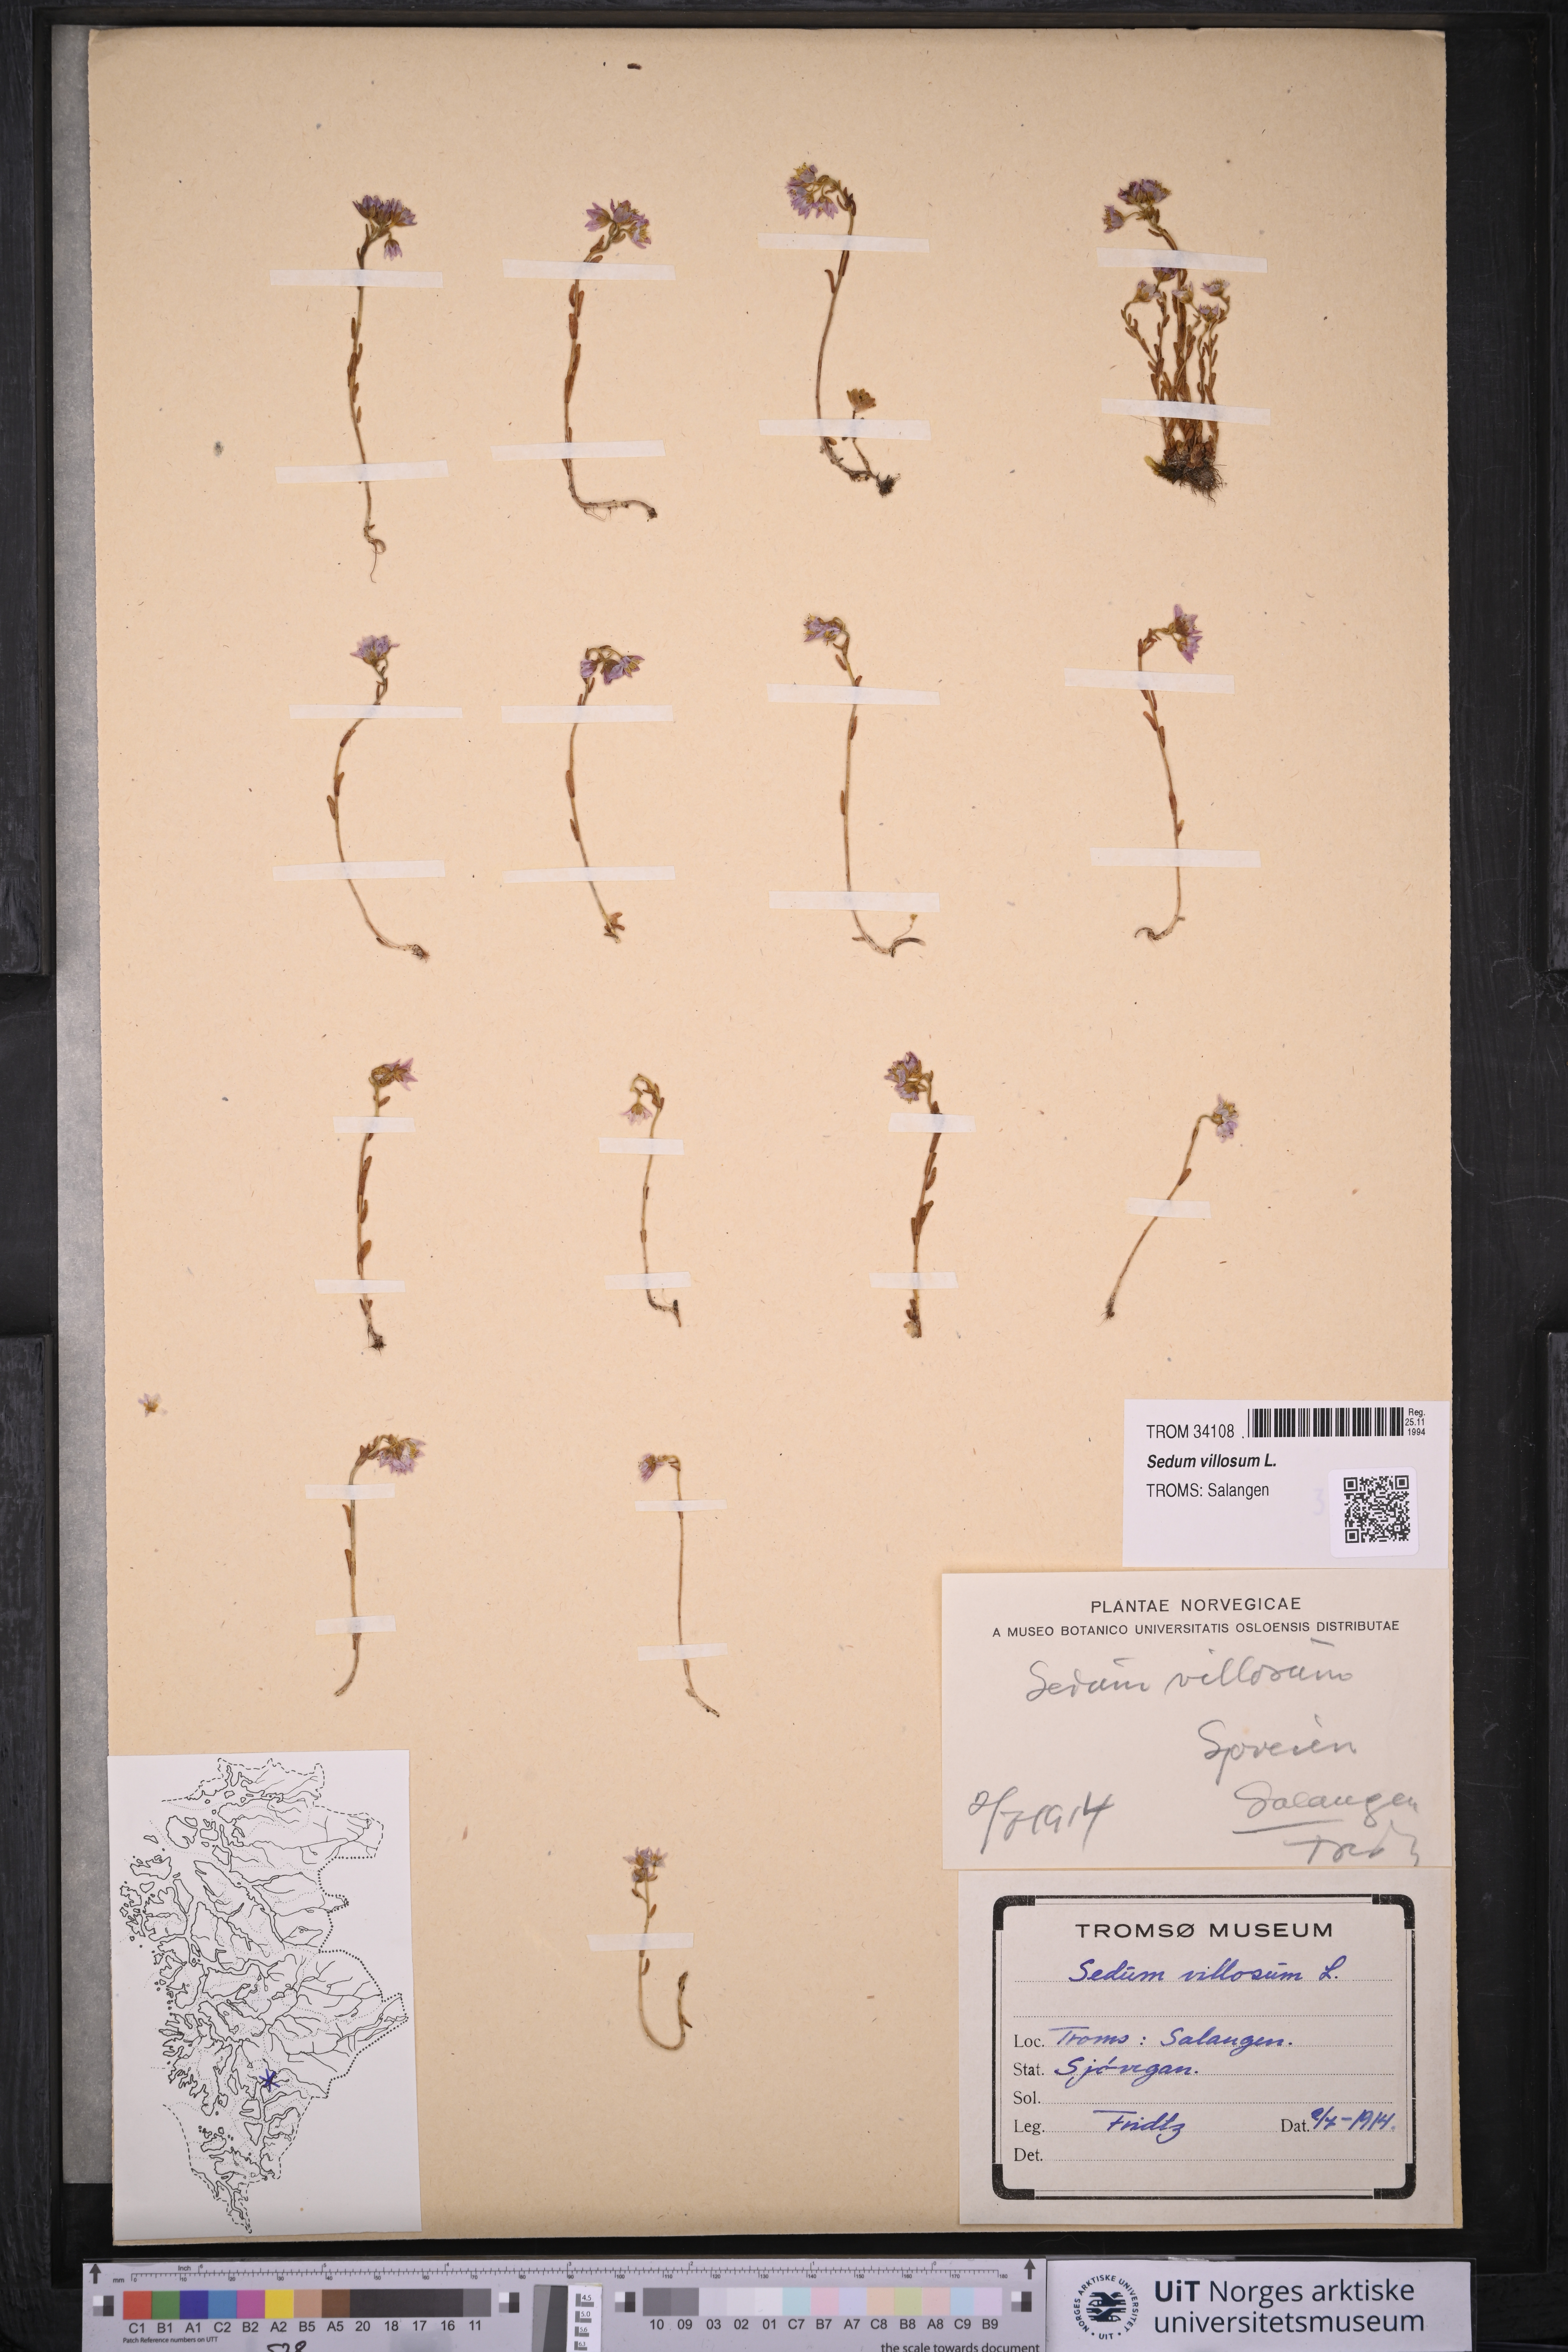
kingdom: Plantae
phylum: Tracheophyta
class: Magnoliopsida
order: Saxifragales
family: Crassulaceae
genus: Sedum
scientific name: Sedum villosum
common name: Hairy stonecrop
